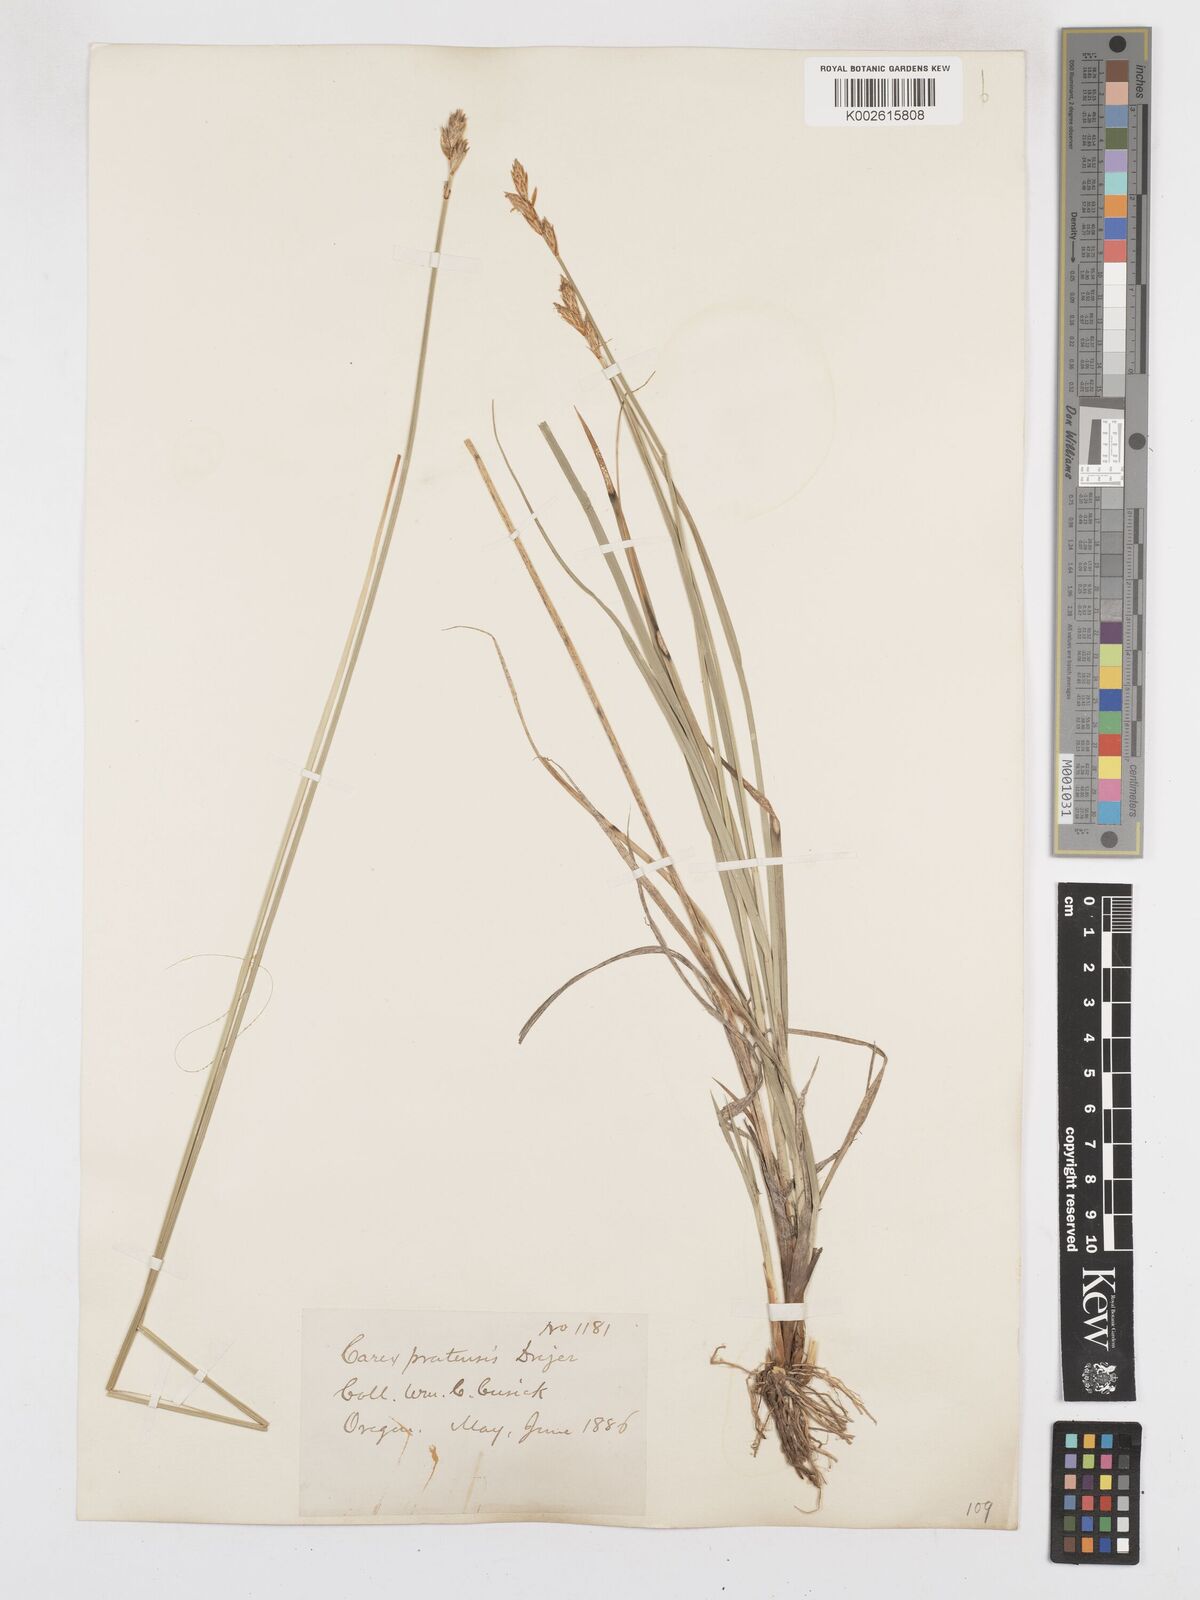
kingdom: Plantae
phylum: Tracheophyta
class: Liliopsida
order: Poales
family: Cyperaceae
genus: Carex
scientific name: Carex praticola
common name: Large-fruited oval sedge
